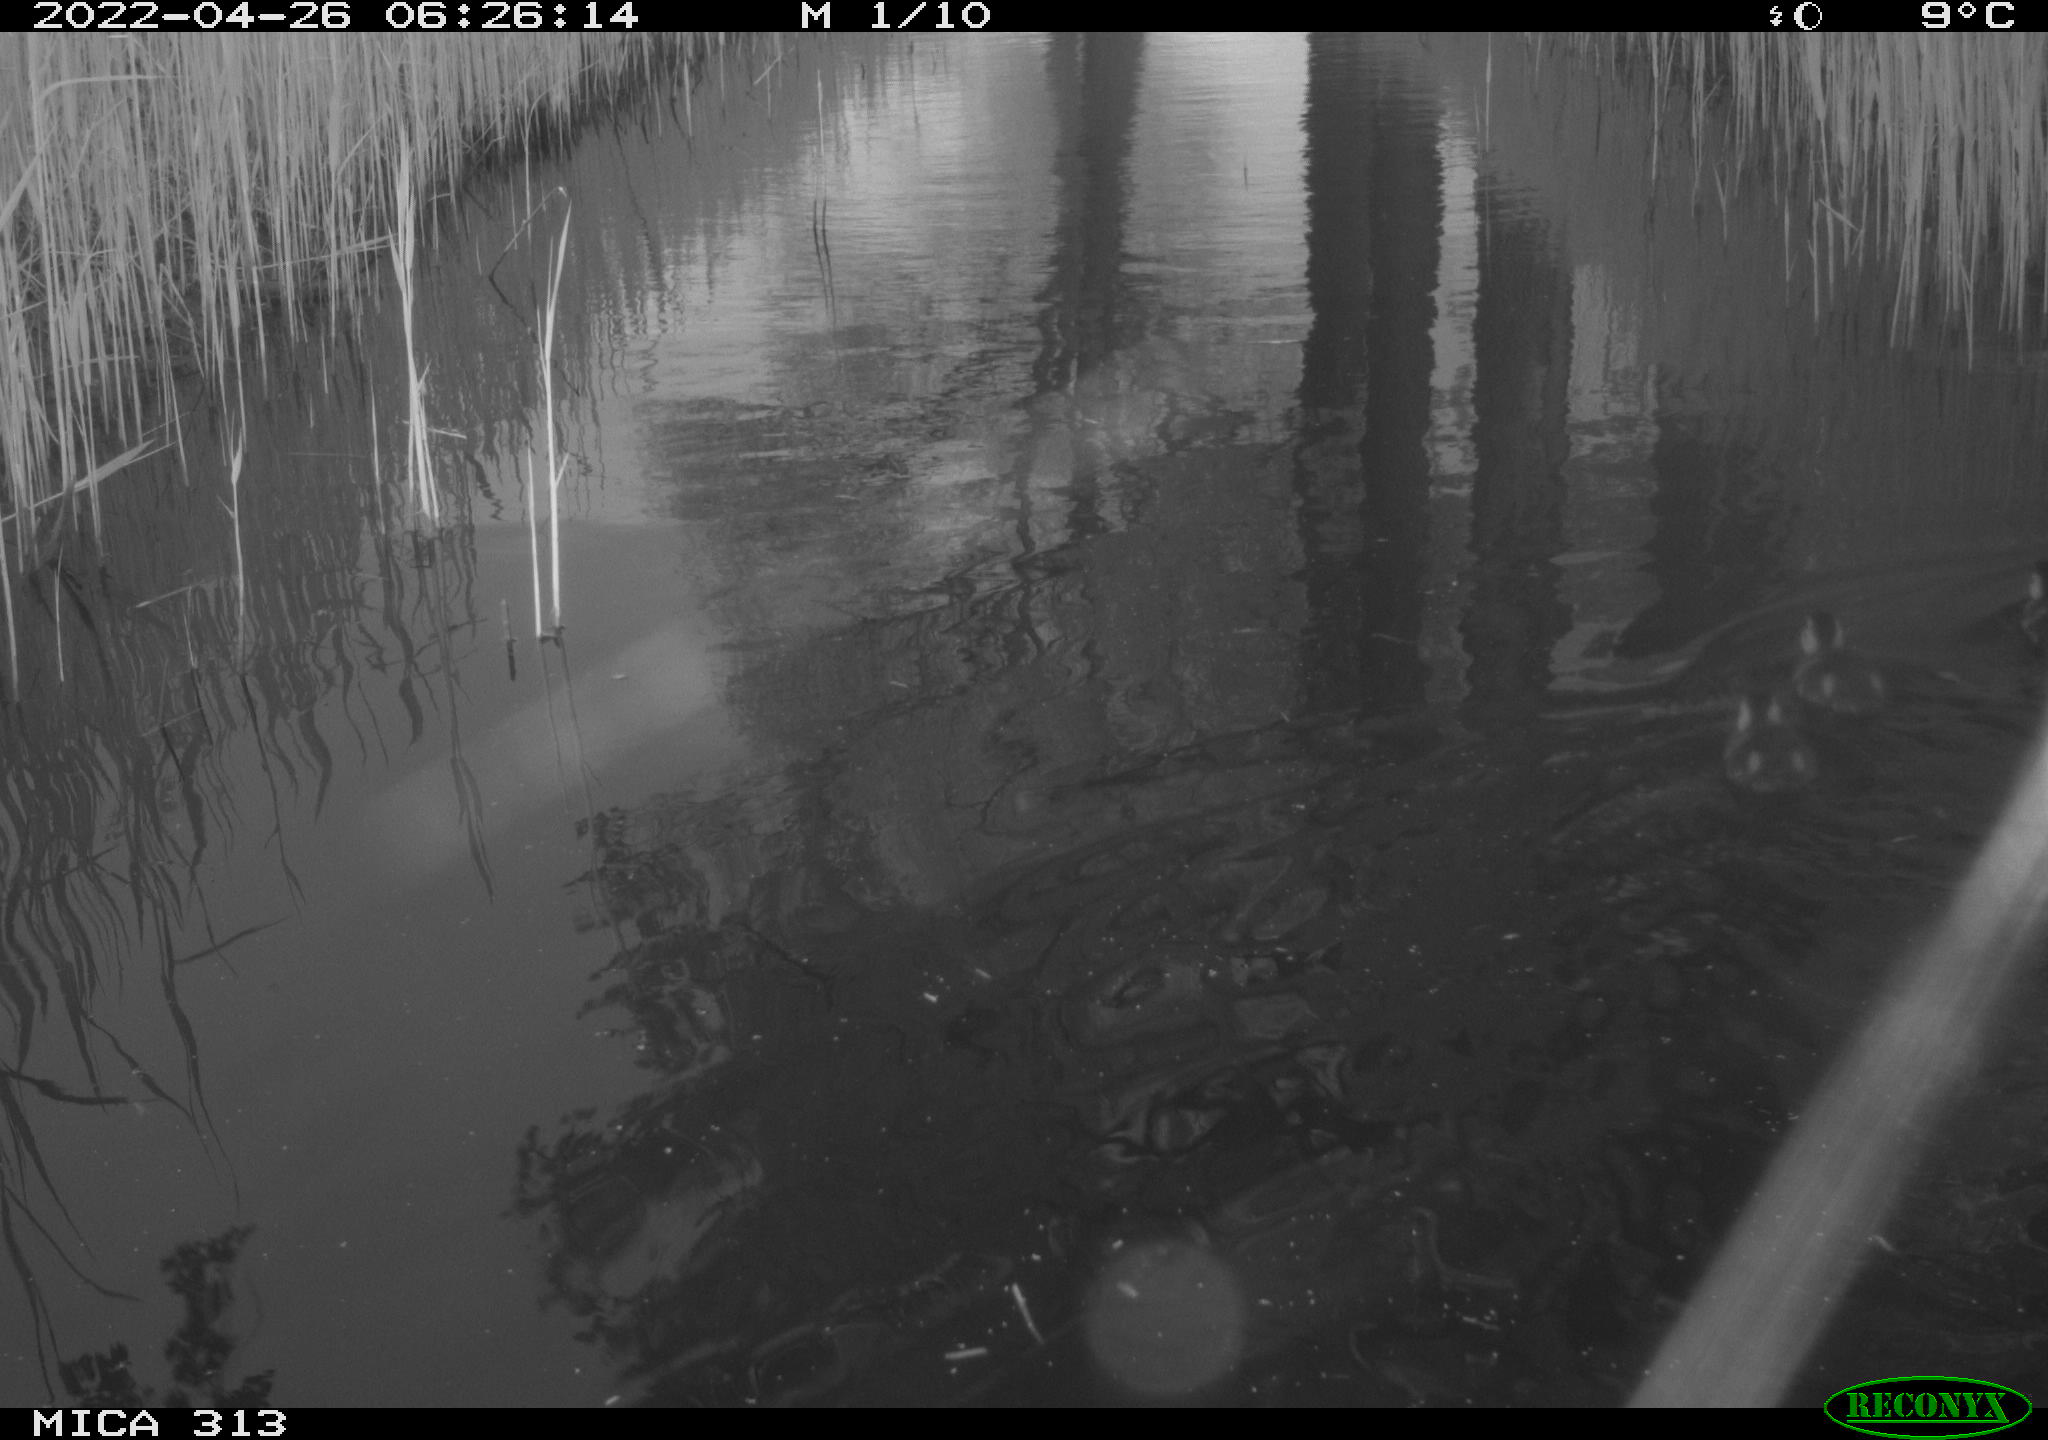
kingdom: Animalia
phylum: Chordata
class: Aves
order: Anseriformes
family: Anatidae
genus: Anas
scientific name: Anas platyrhynchos
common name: Mallard
